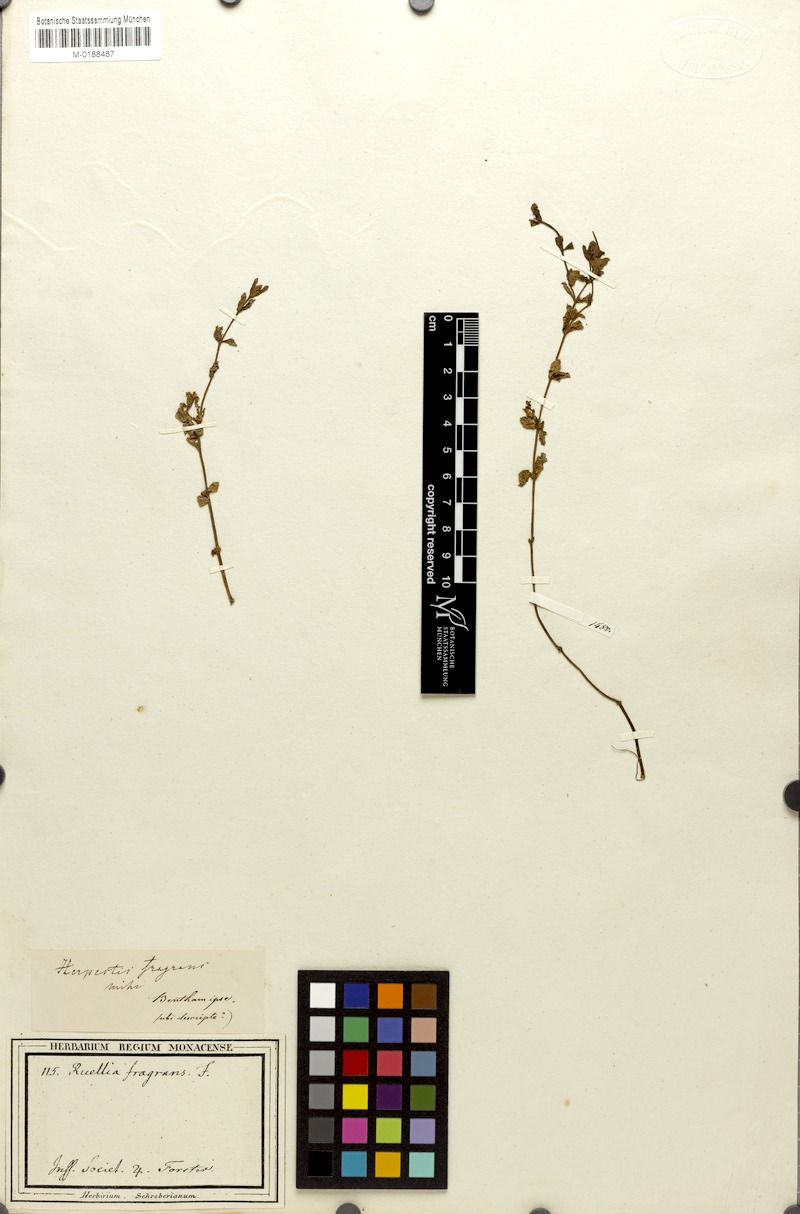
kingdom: Plantae
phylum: Tracheophyta
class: Magnoliopsida
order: Lamiales
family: Plantaginaceae
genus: Limnophila
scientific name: Limnophila fragrans
